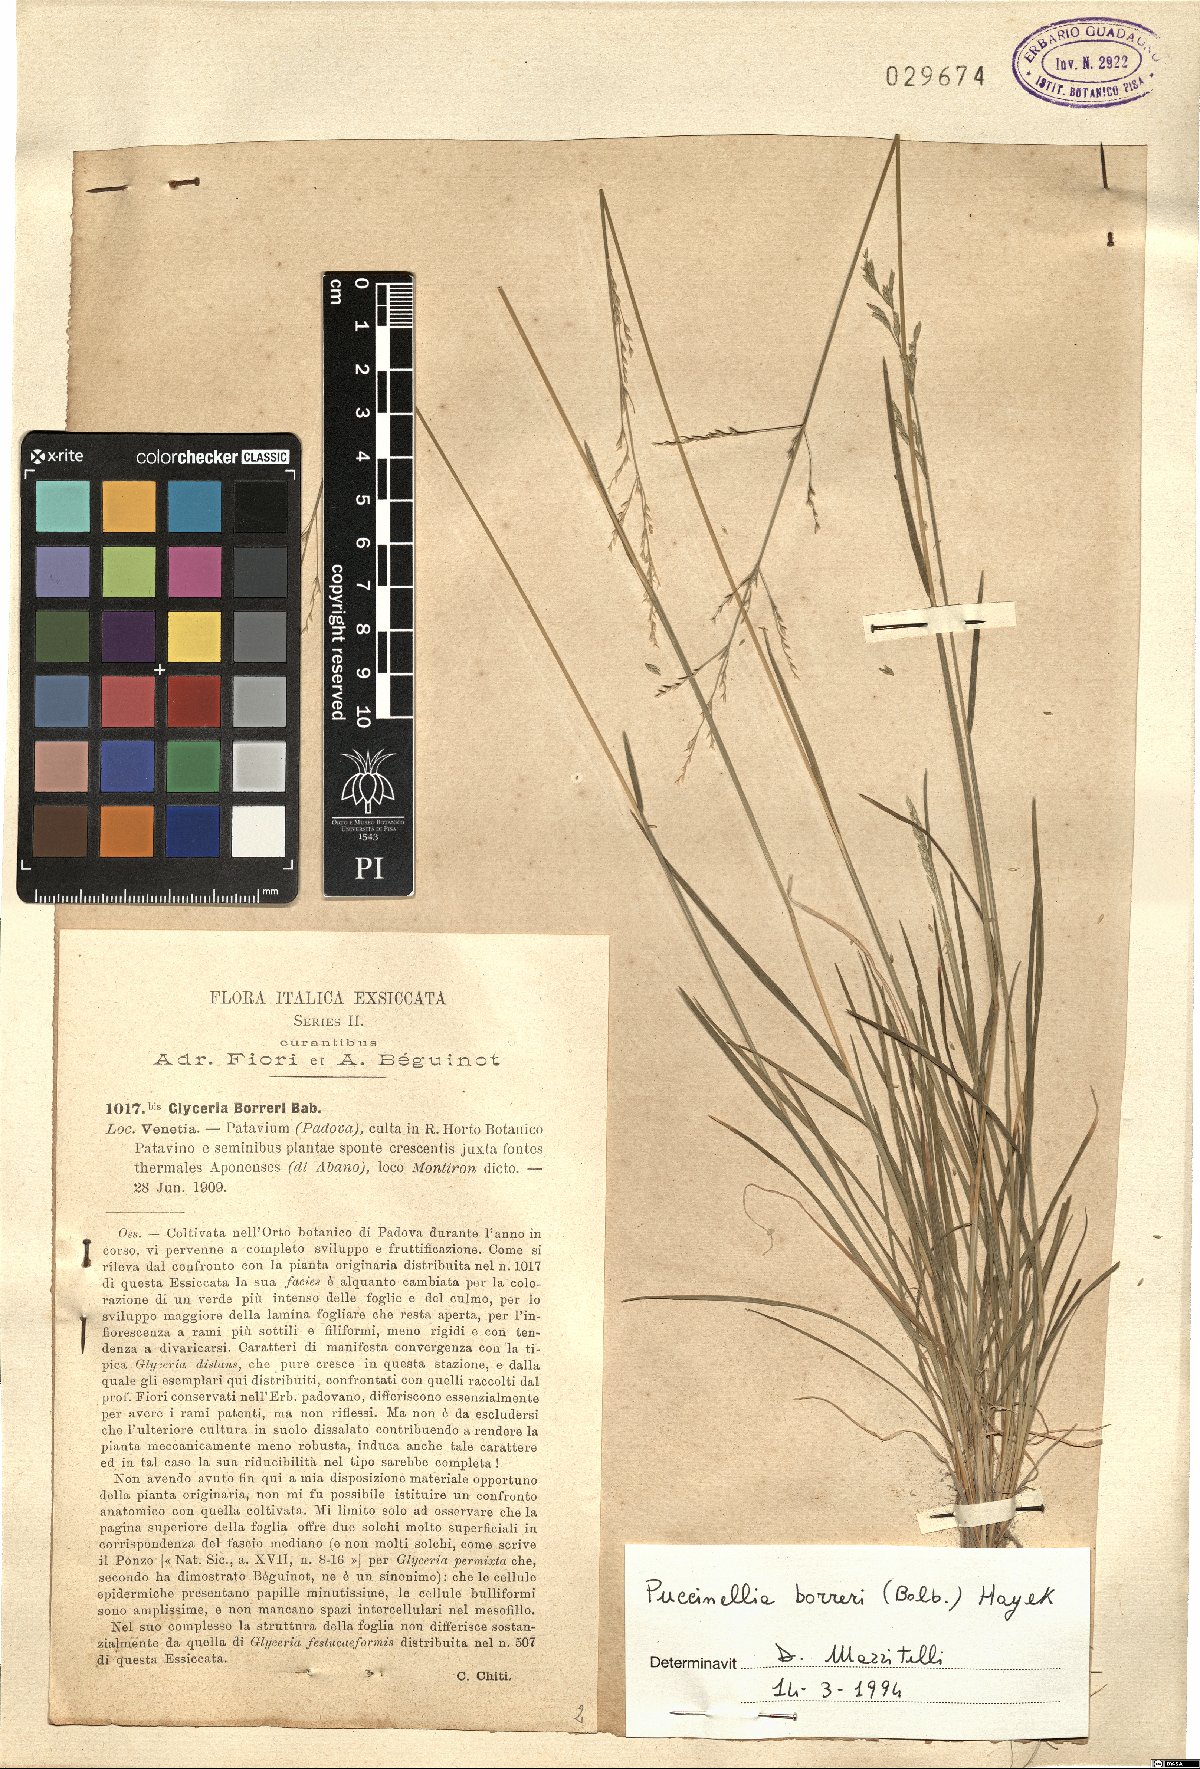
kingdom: Plantae
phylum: Tracheophyta
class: Liliopsida
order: Poales
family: Poaceae
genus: Puccinellia
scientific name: Puccinellia fasciculata
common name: Borrer's saltmarsh-grass
